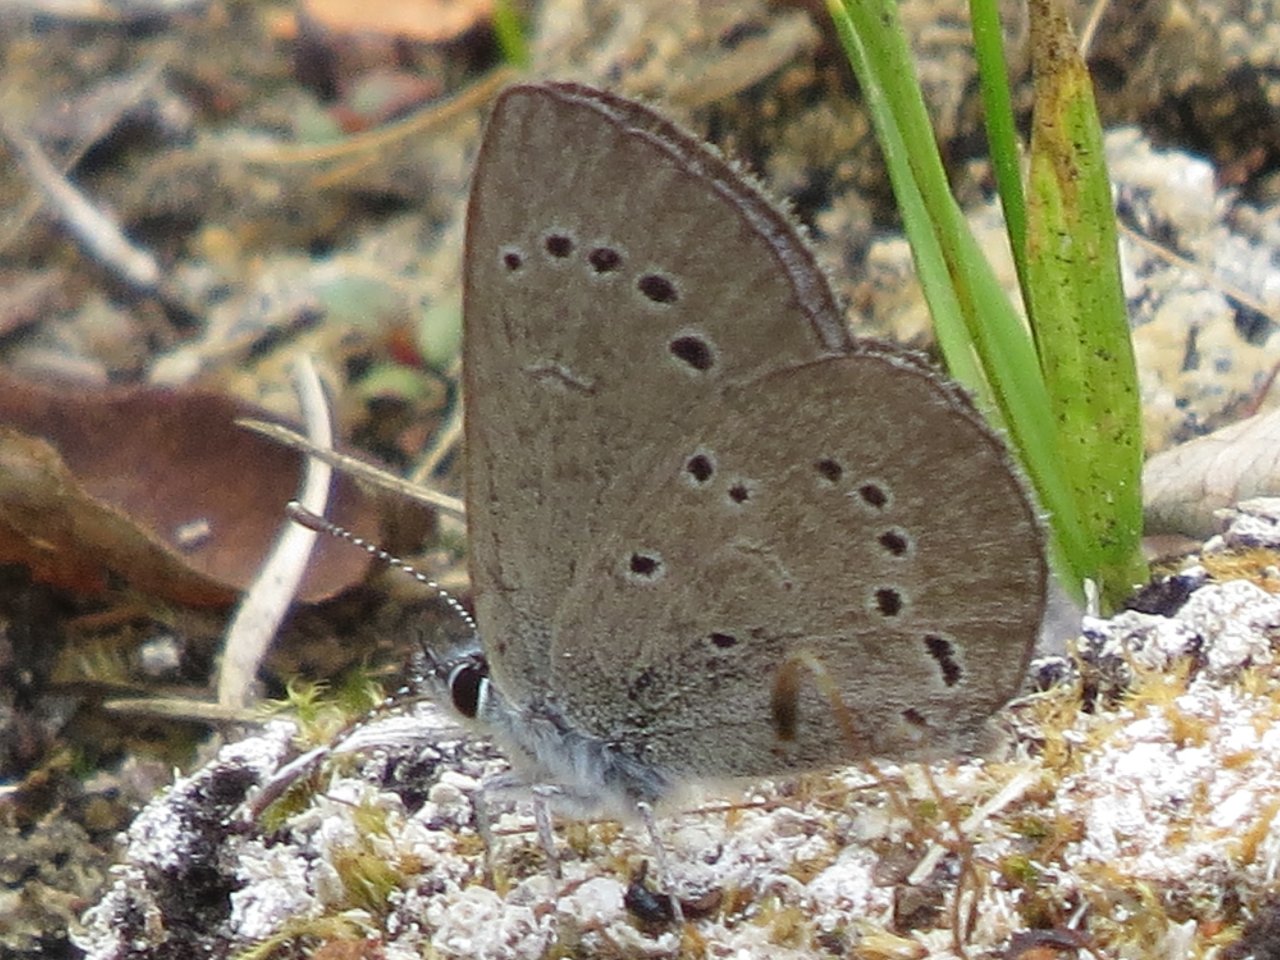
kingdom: Animalia
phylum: Arthropoda
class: Insecta
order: Lepidoptera
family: Lycaenidae
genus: Glaucopsyche
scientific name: Glaucopsyche lygdamus
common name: Silvery Blue
